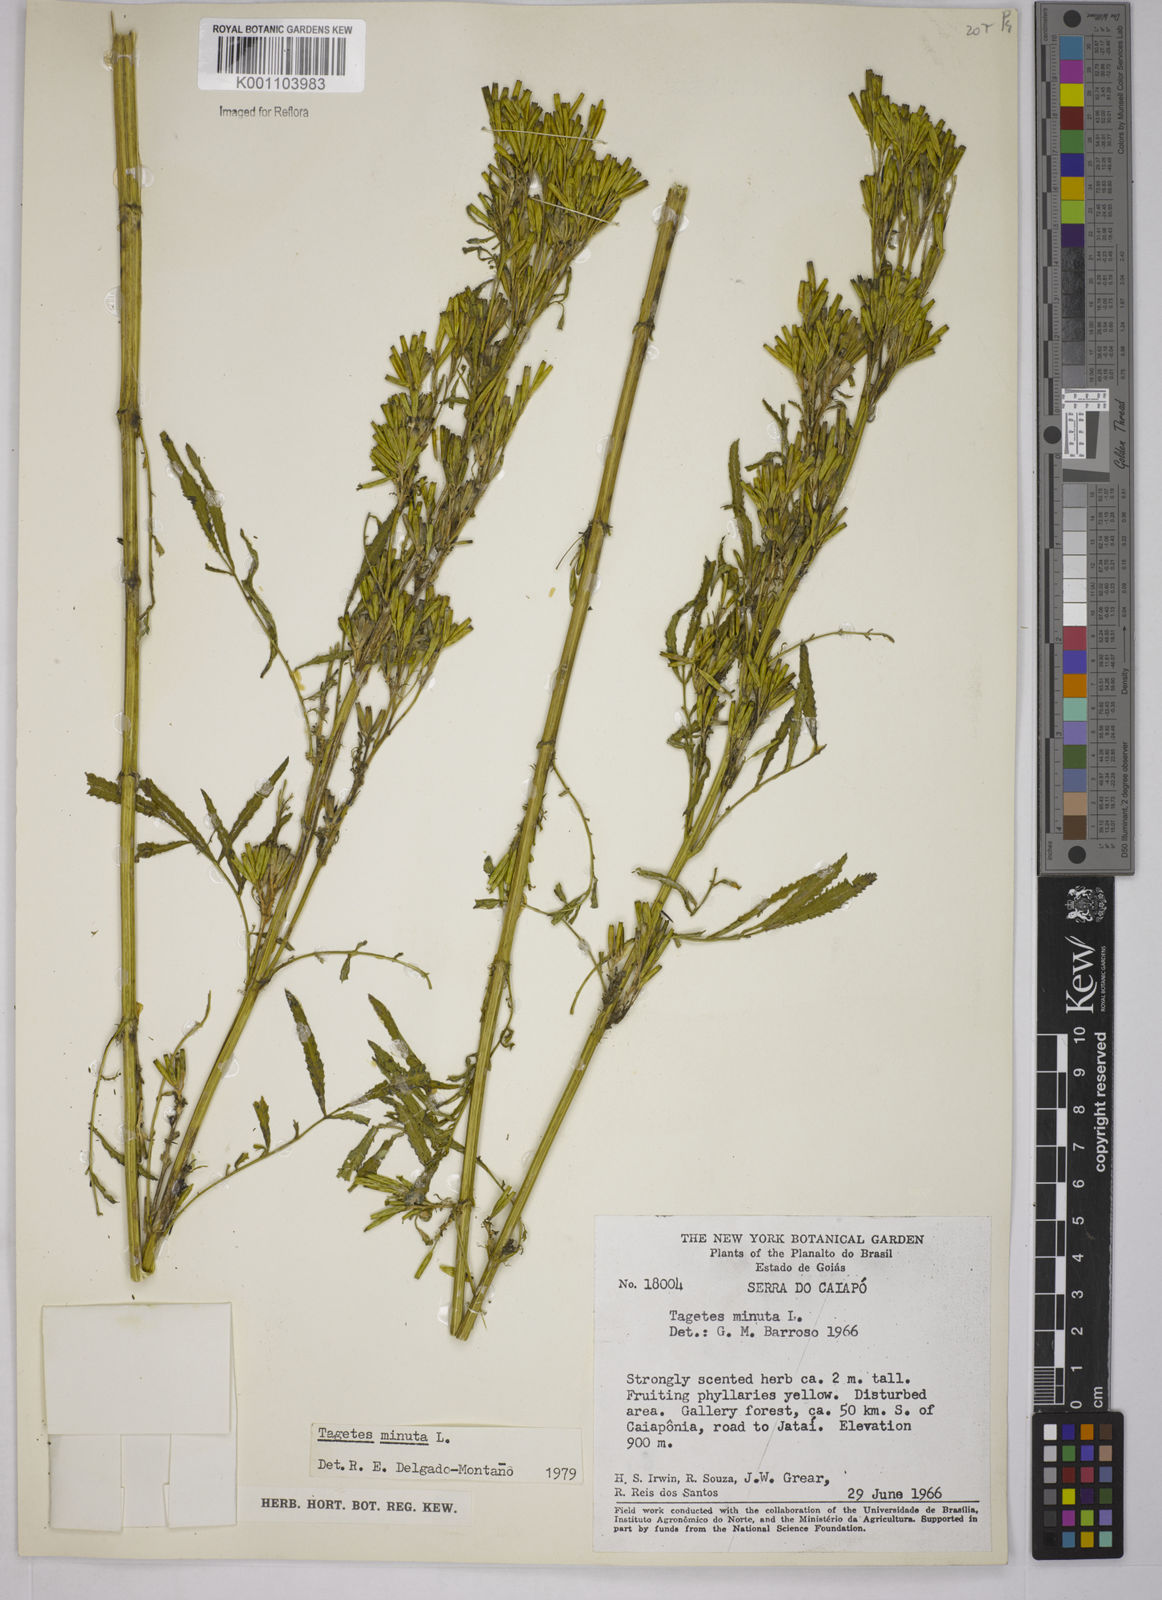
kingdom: Plantae
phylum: Tracheophyta
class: Magnoliopsida
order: Asterales
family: Asteraceae
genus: Tagetes
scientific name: Tagetes minuta
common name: Muster john henry
